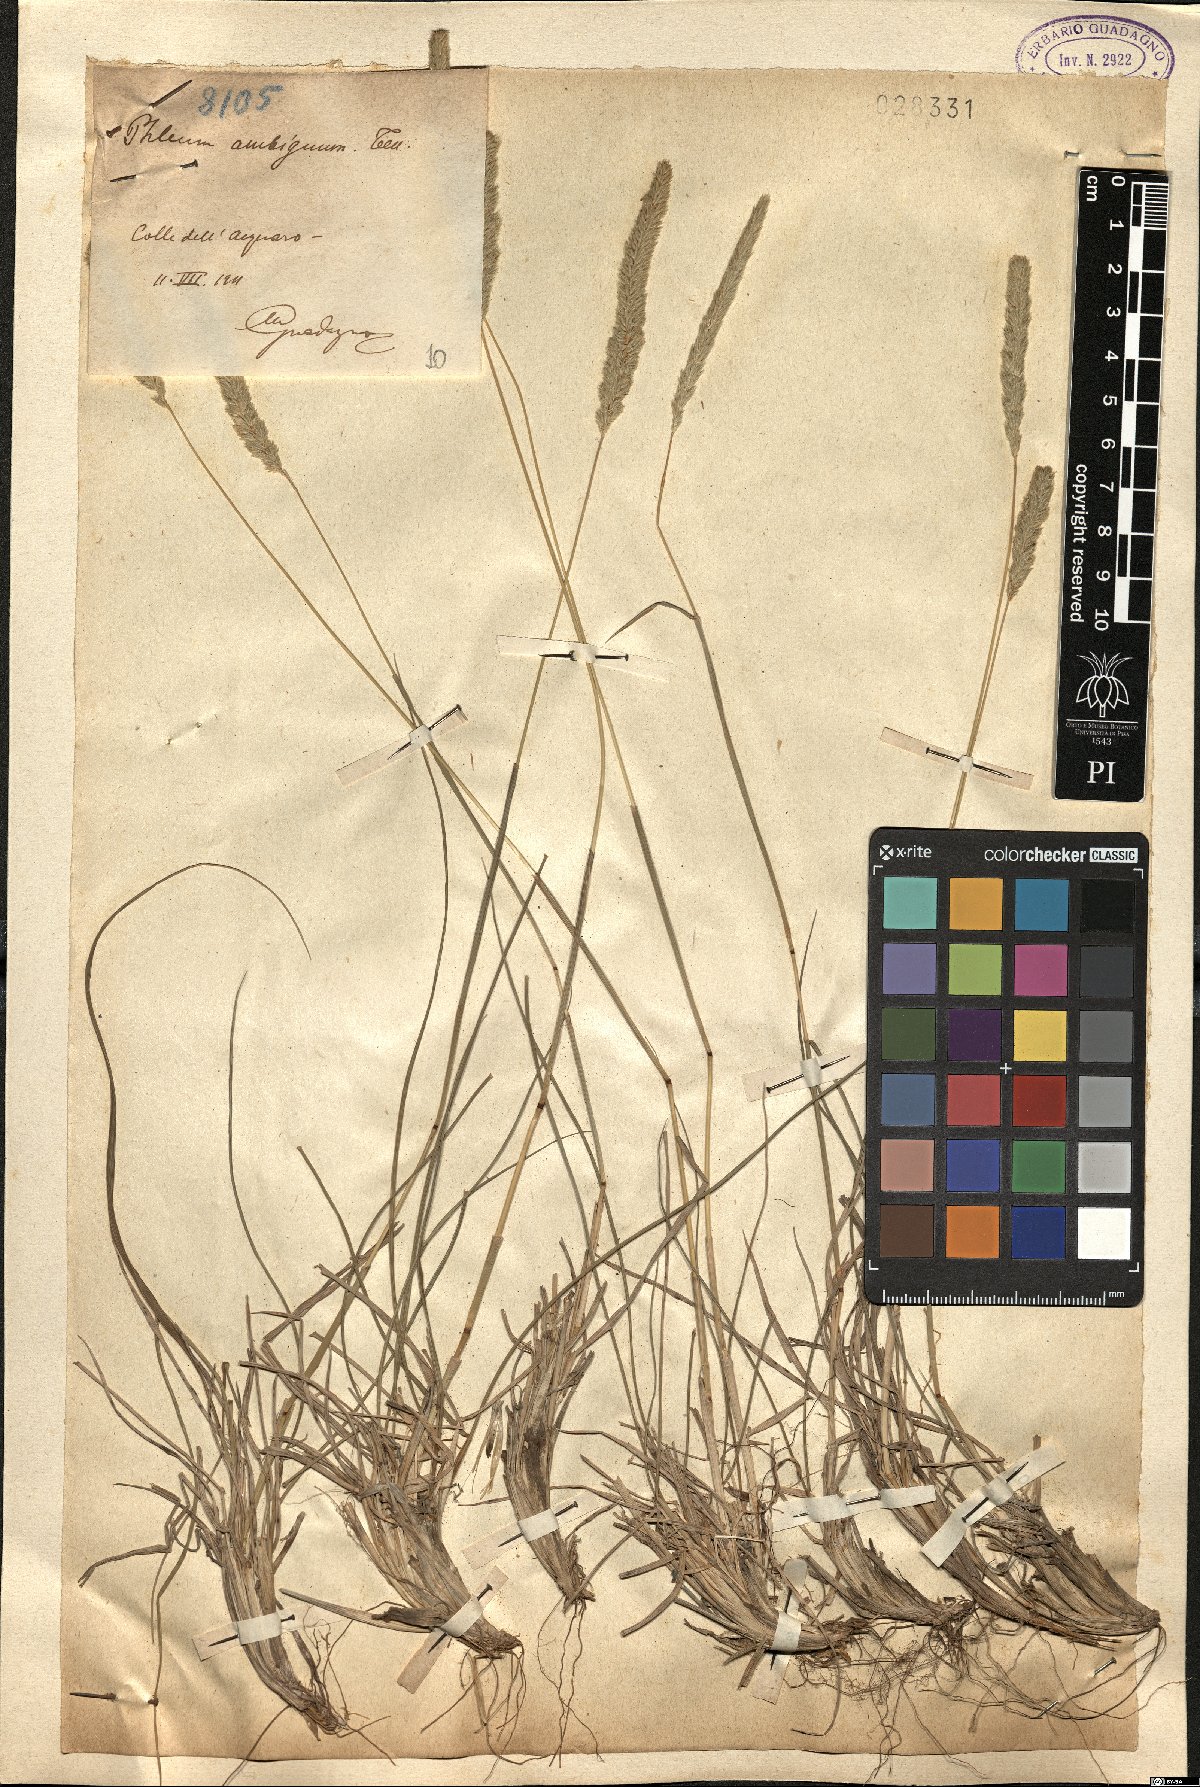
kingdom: Plantae
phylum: Tracheophyta
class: Liliopsida
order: Poales
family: Poaceae
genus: Phleum
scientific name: Phleum hirsutum
